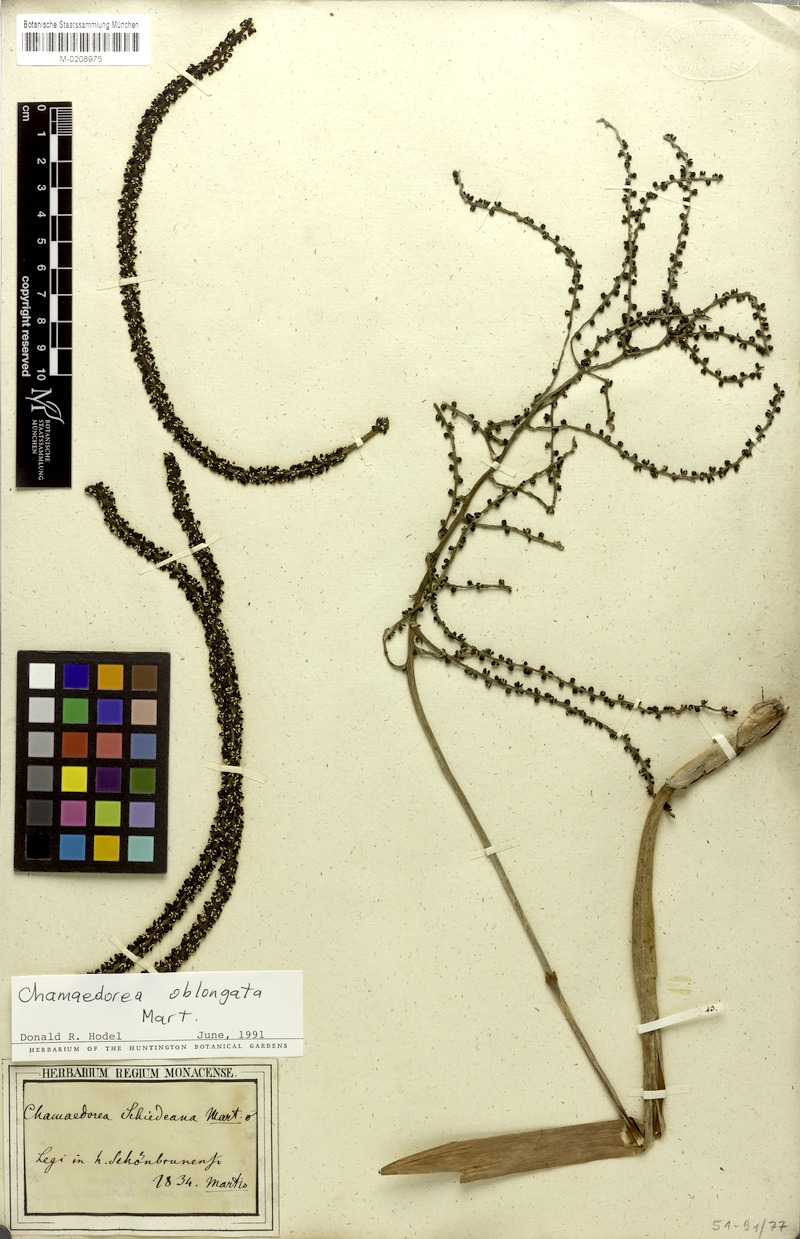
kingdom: Plantae
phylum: Tracheophyta
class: Liliopsida
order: Arecales
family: Arecaceae
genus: Chamaedorea
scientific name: Chamaedorea oblongata
